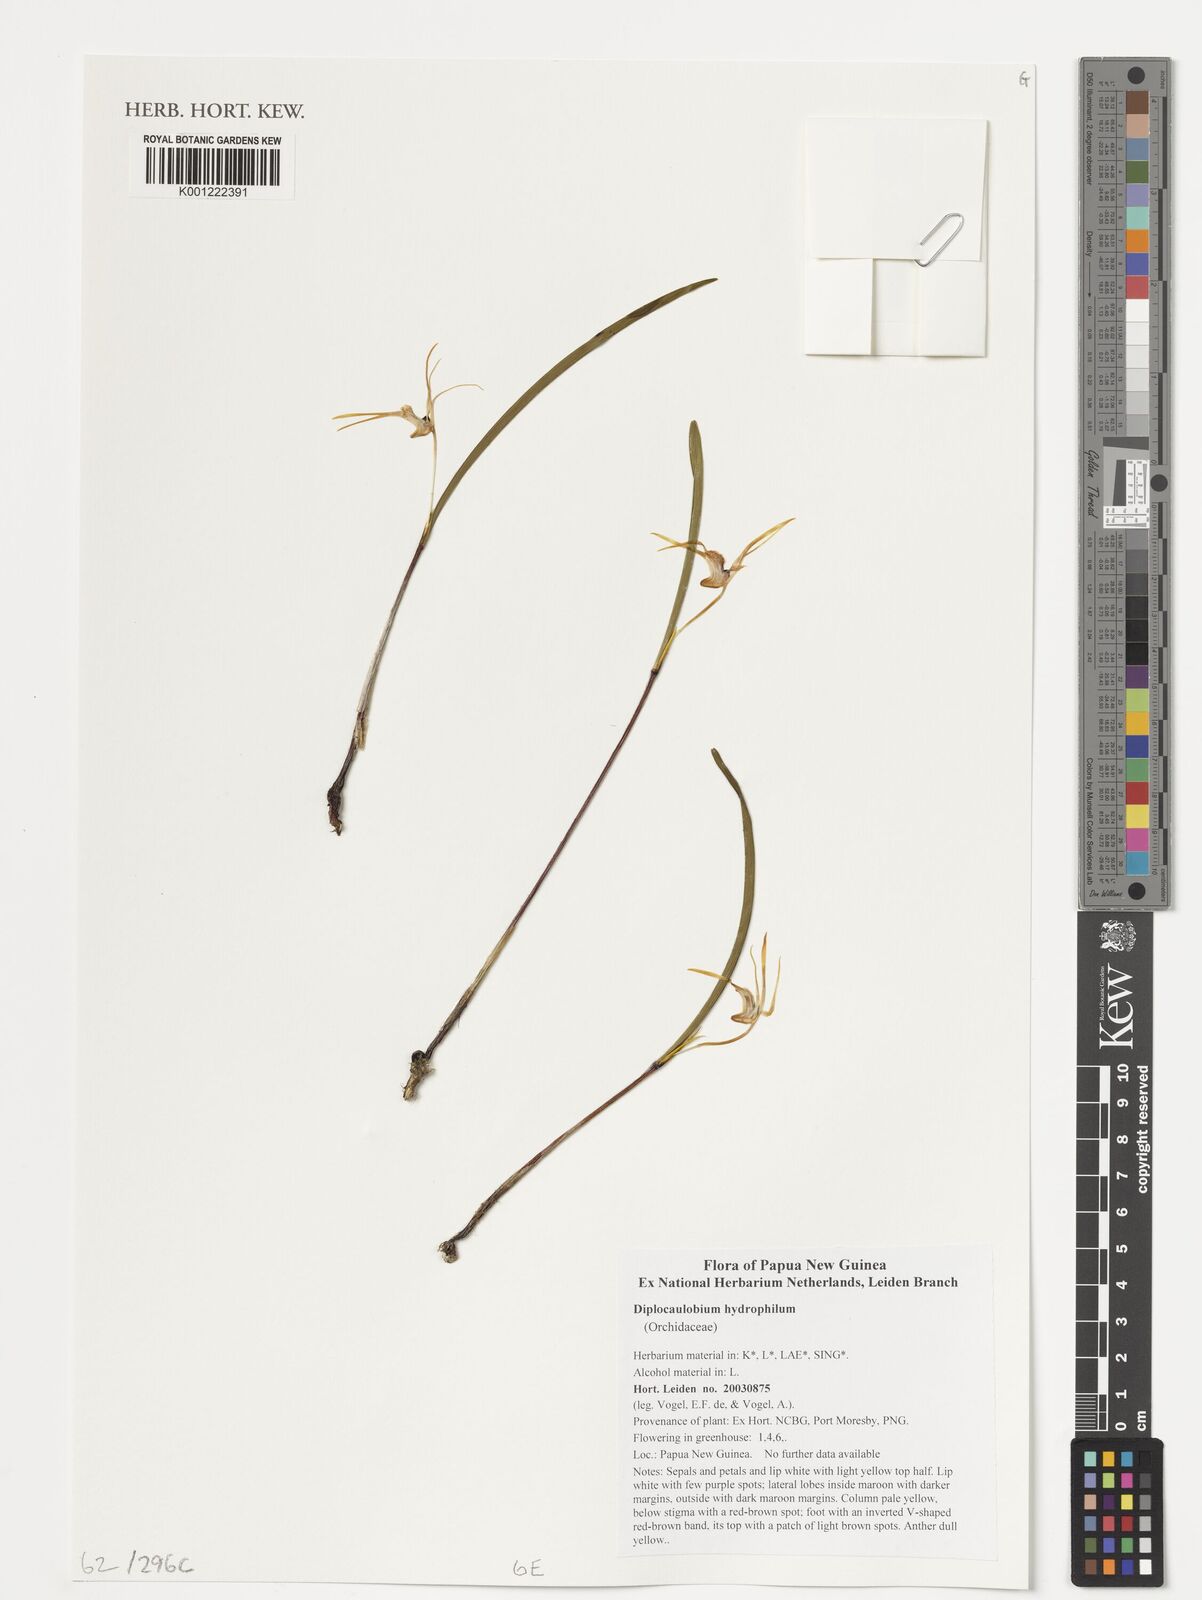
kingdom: Plantae
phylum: Tracheophyta
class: Liliopsida
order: Asparagales
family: Orchidaceae
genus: Dendrobium
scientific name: Dendrobium hydrophilum
